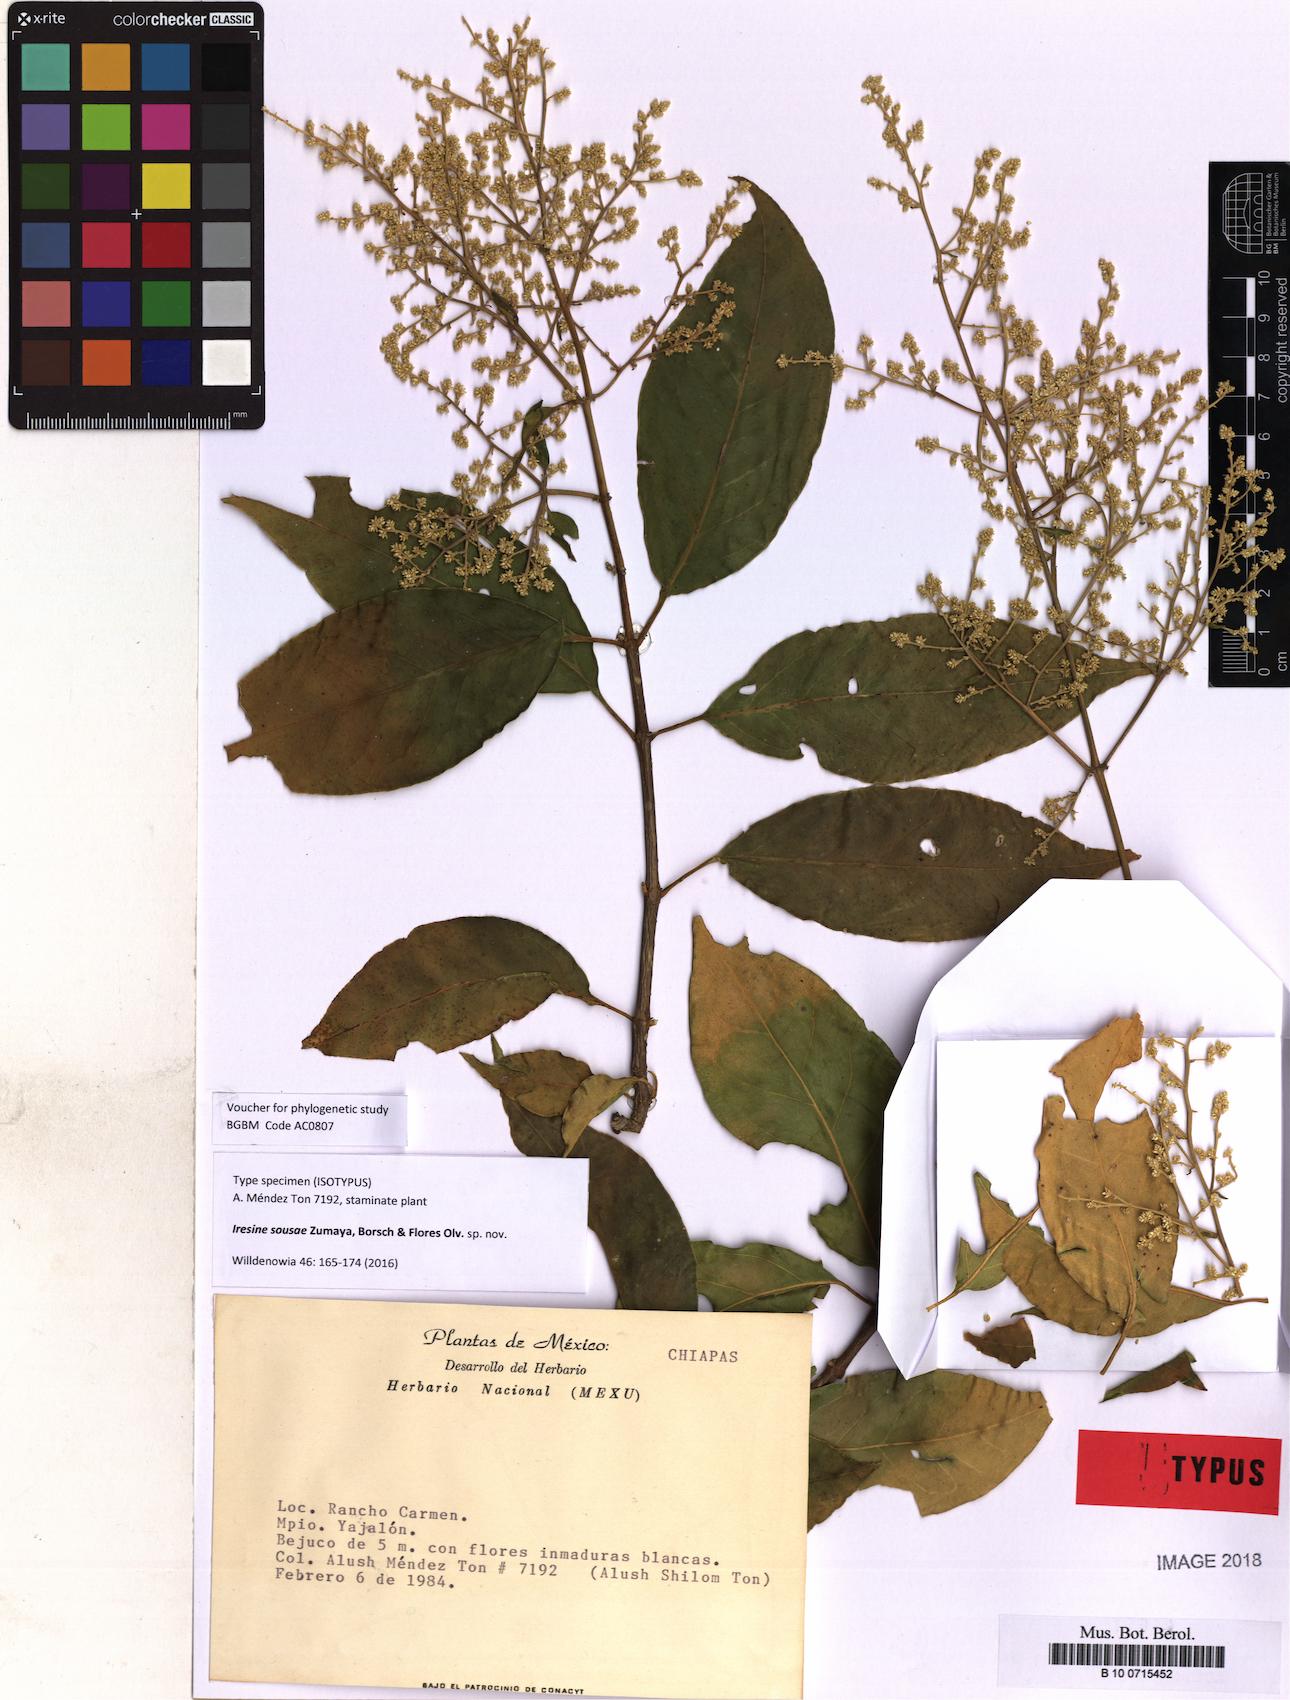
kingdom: Plantae
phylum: Tracheophyta
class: Magnoliopsida
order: Caryophyllales
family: Amaranthaceae
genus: Iresine
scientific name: Iresine sousae
